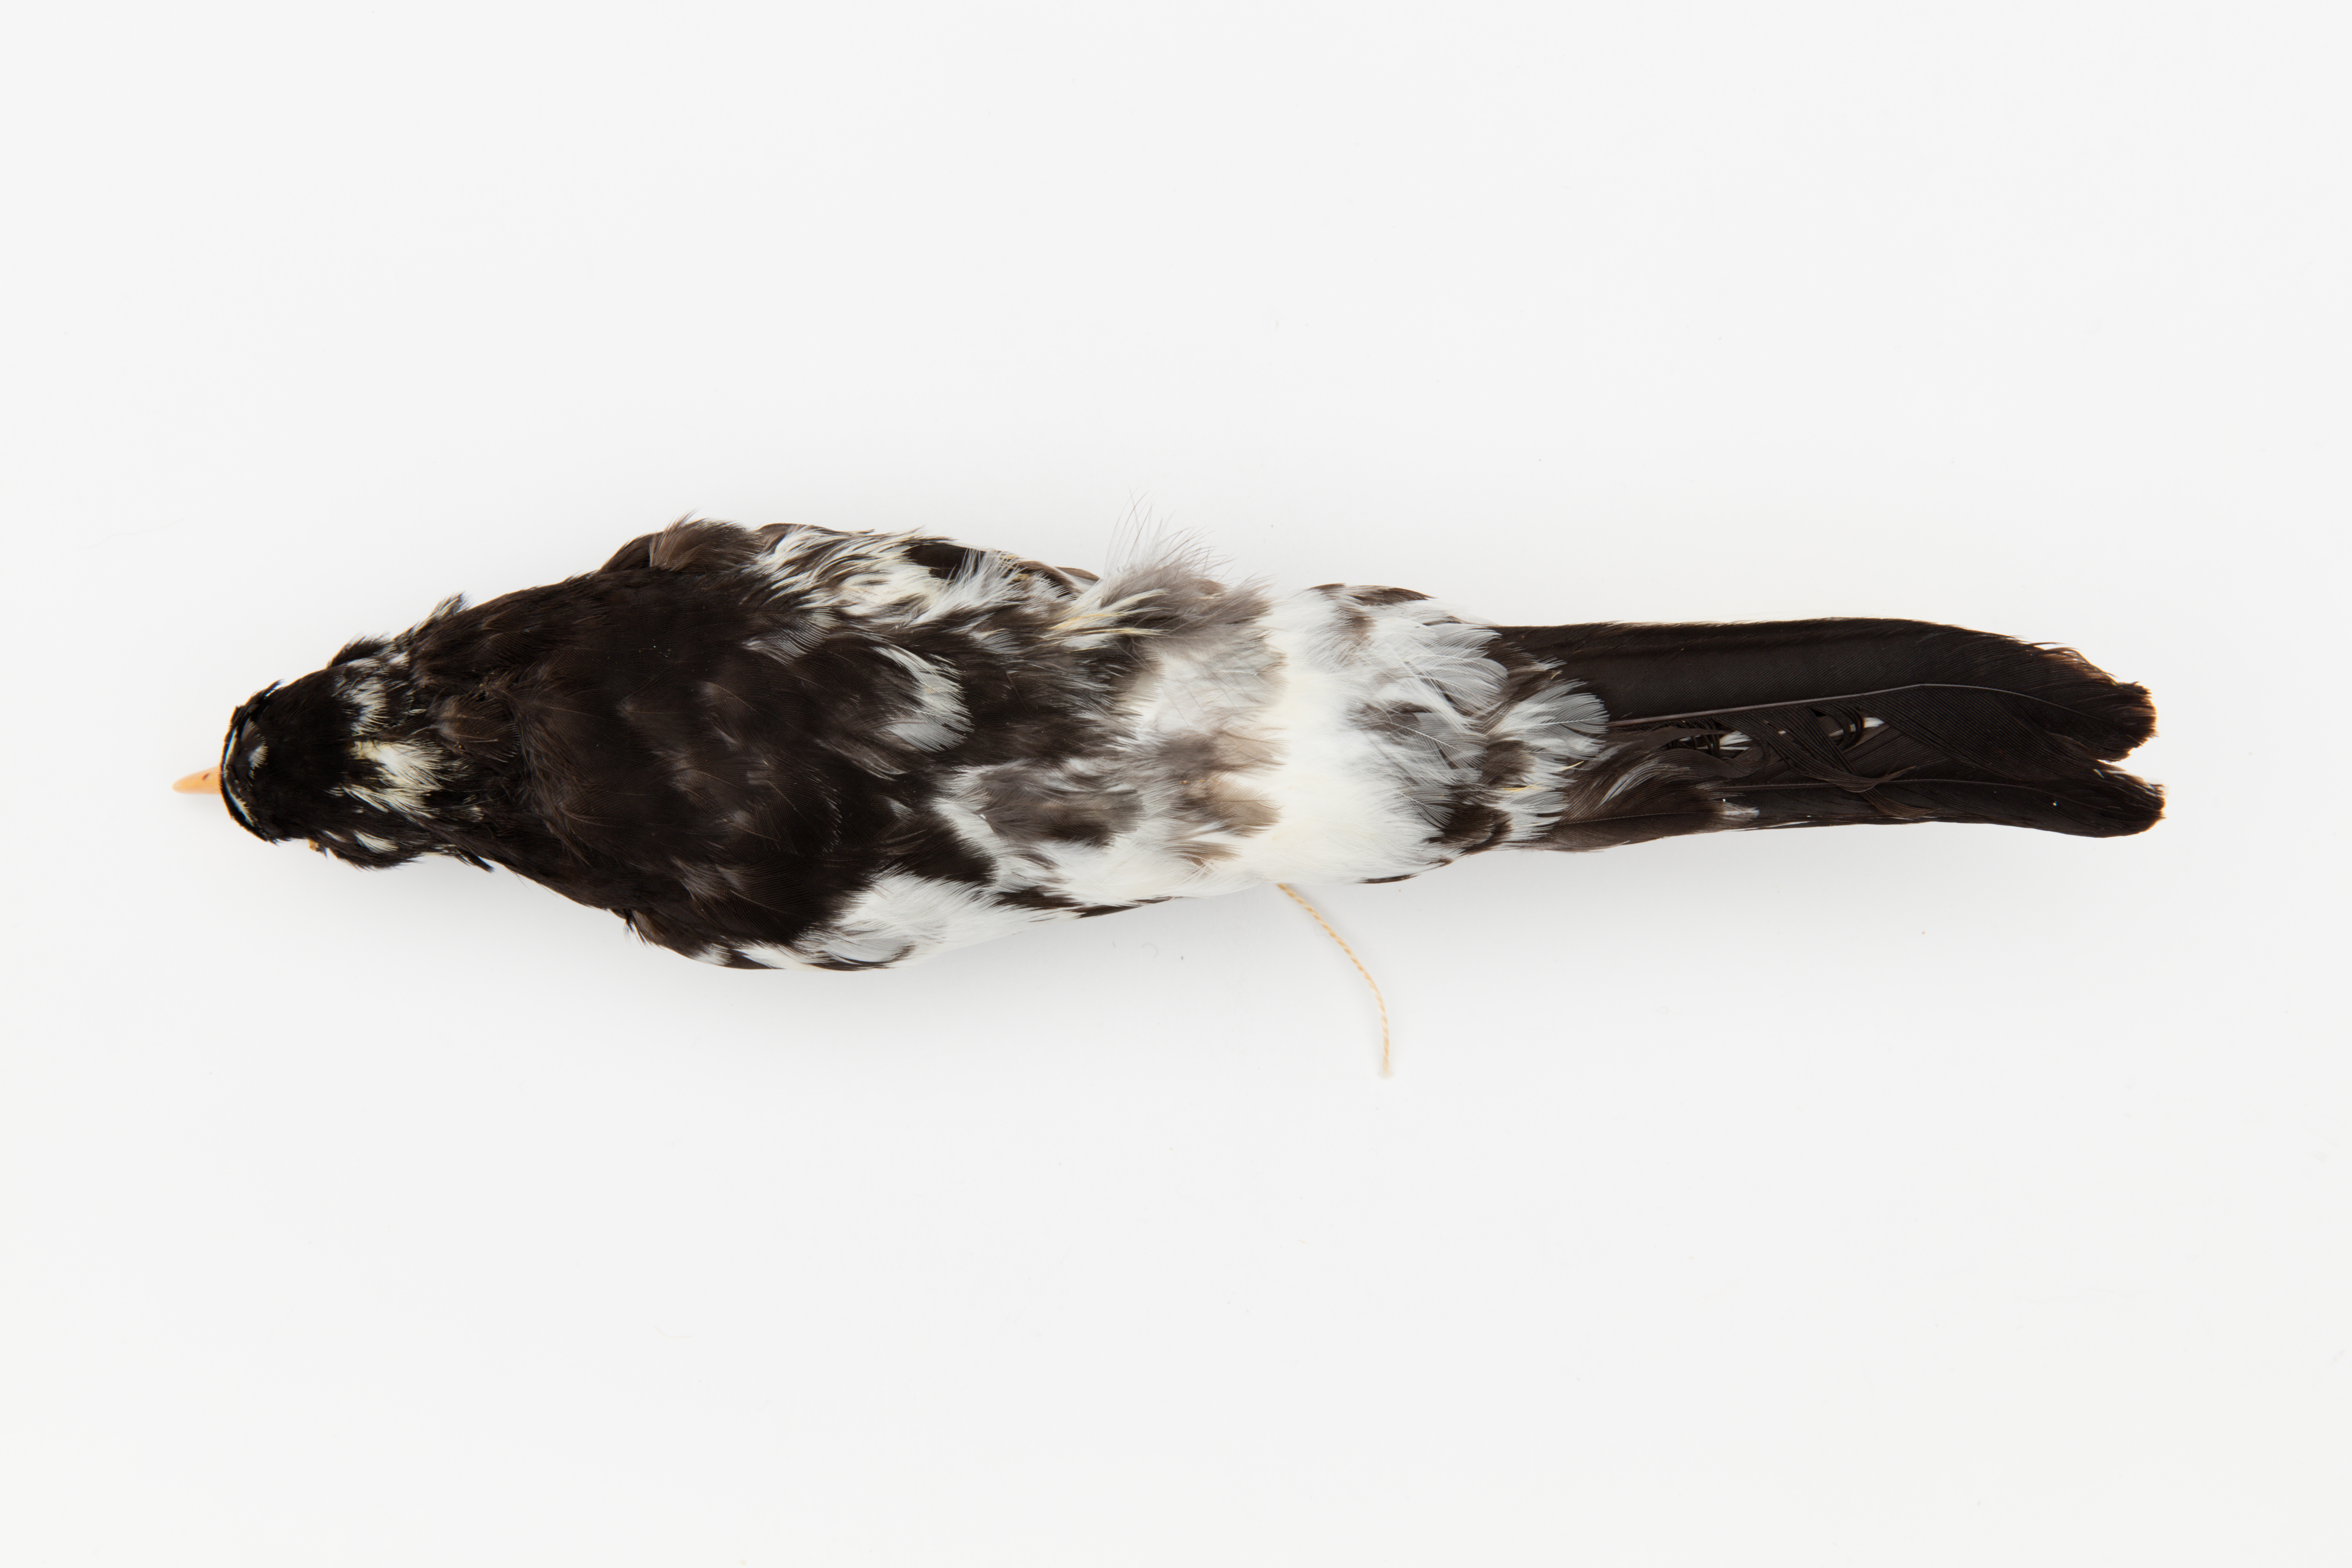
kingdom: Animalia
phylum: Chordata
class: Aves
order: Passeriformes
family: Turdidae
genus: Turdus
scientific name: Turdus merula
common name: Common blackbird
